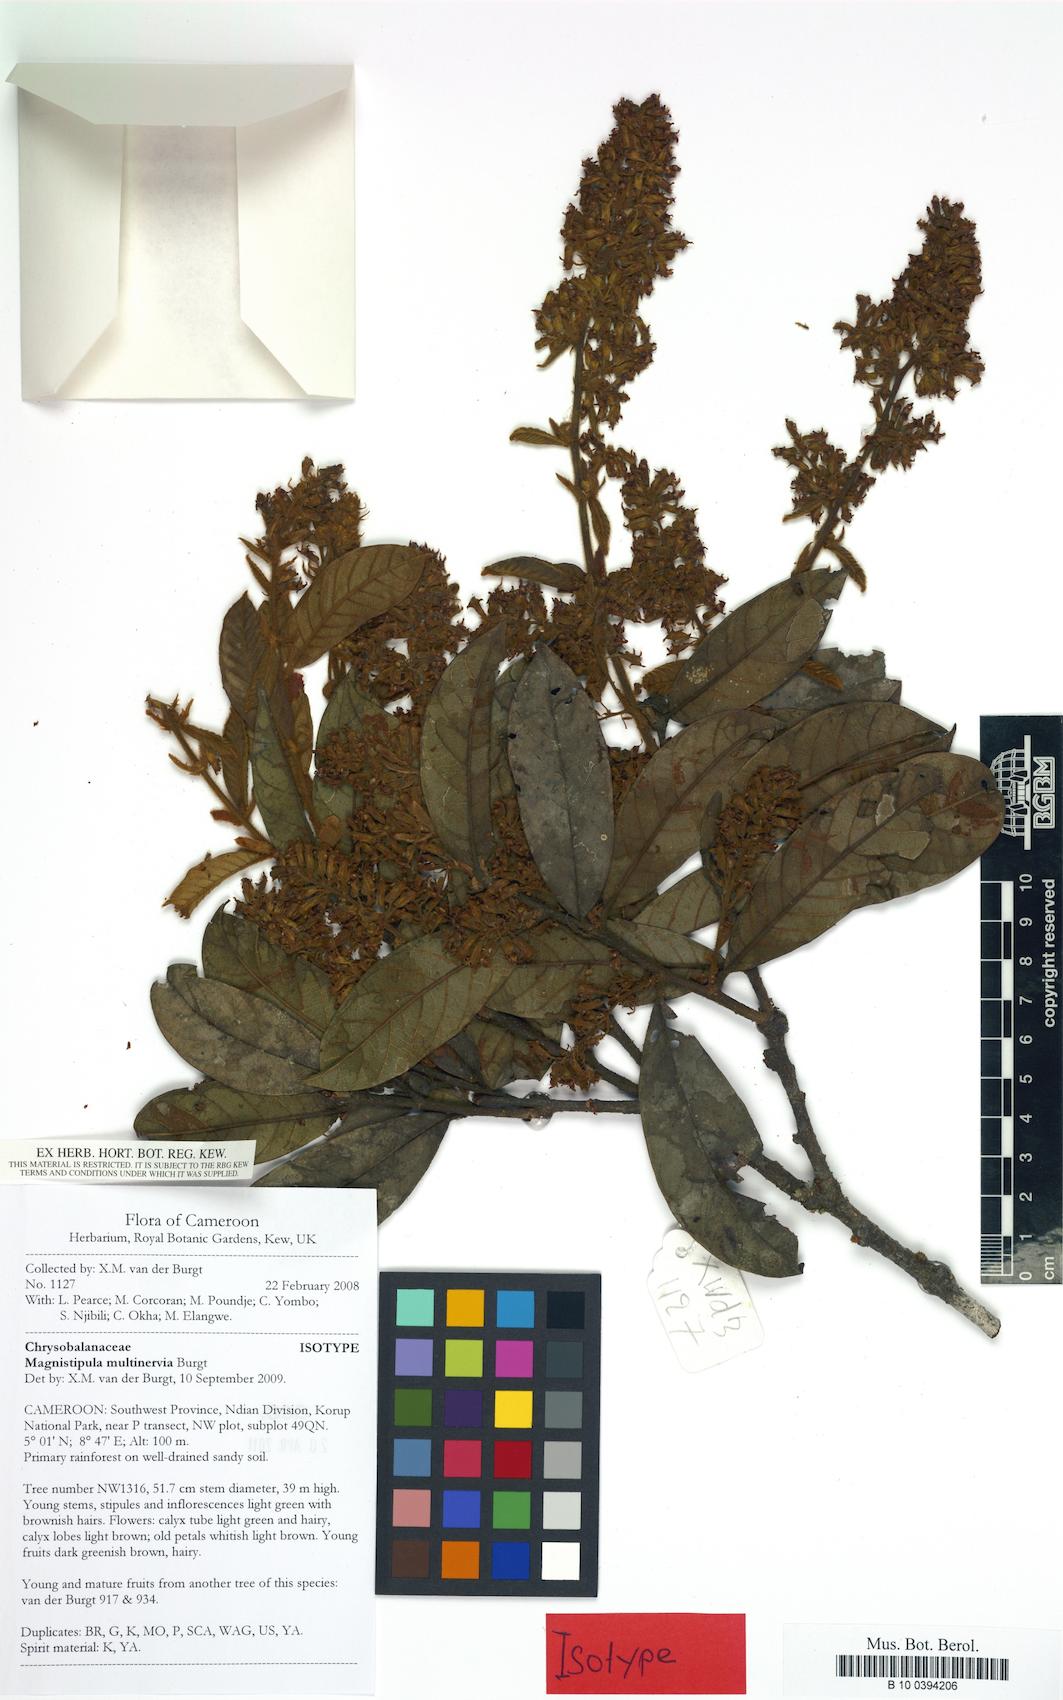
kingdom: Plantae
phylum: Tracheophyta
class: Magnoliopsida
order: Malpighiales
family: Chrysobalanaceae
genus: Magnistipula
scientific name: Magnistipula multinervia
